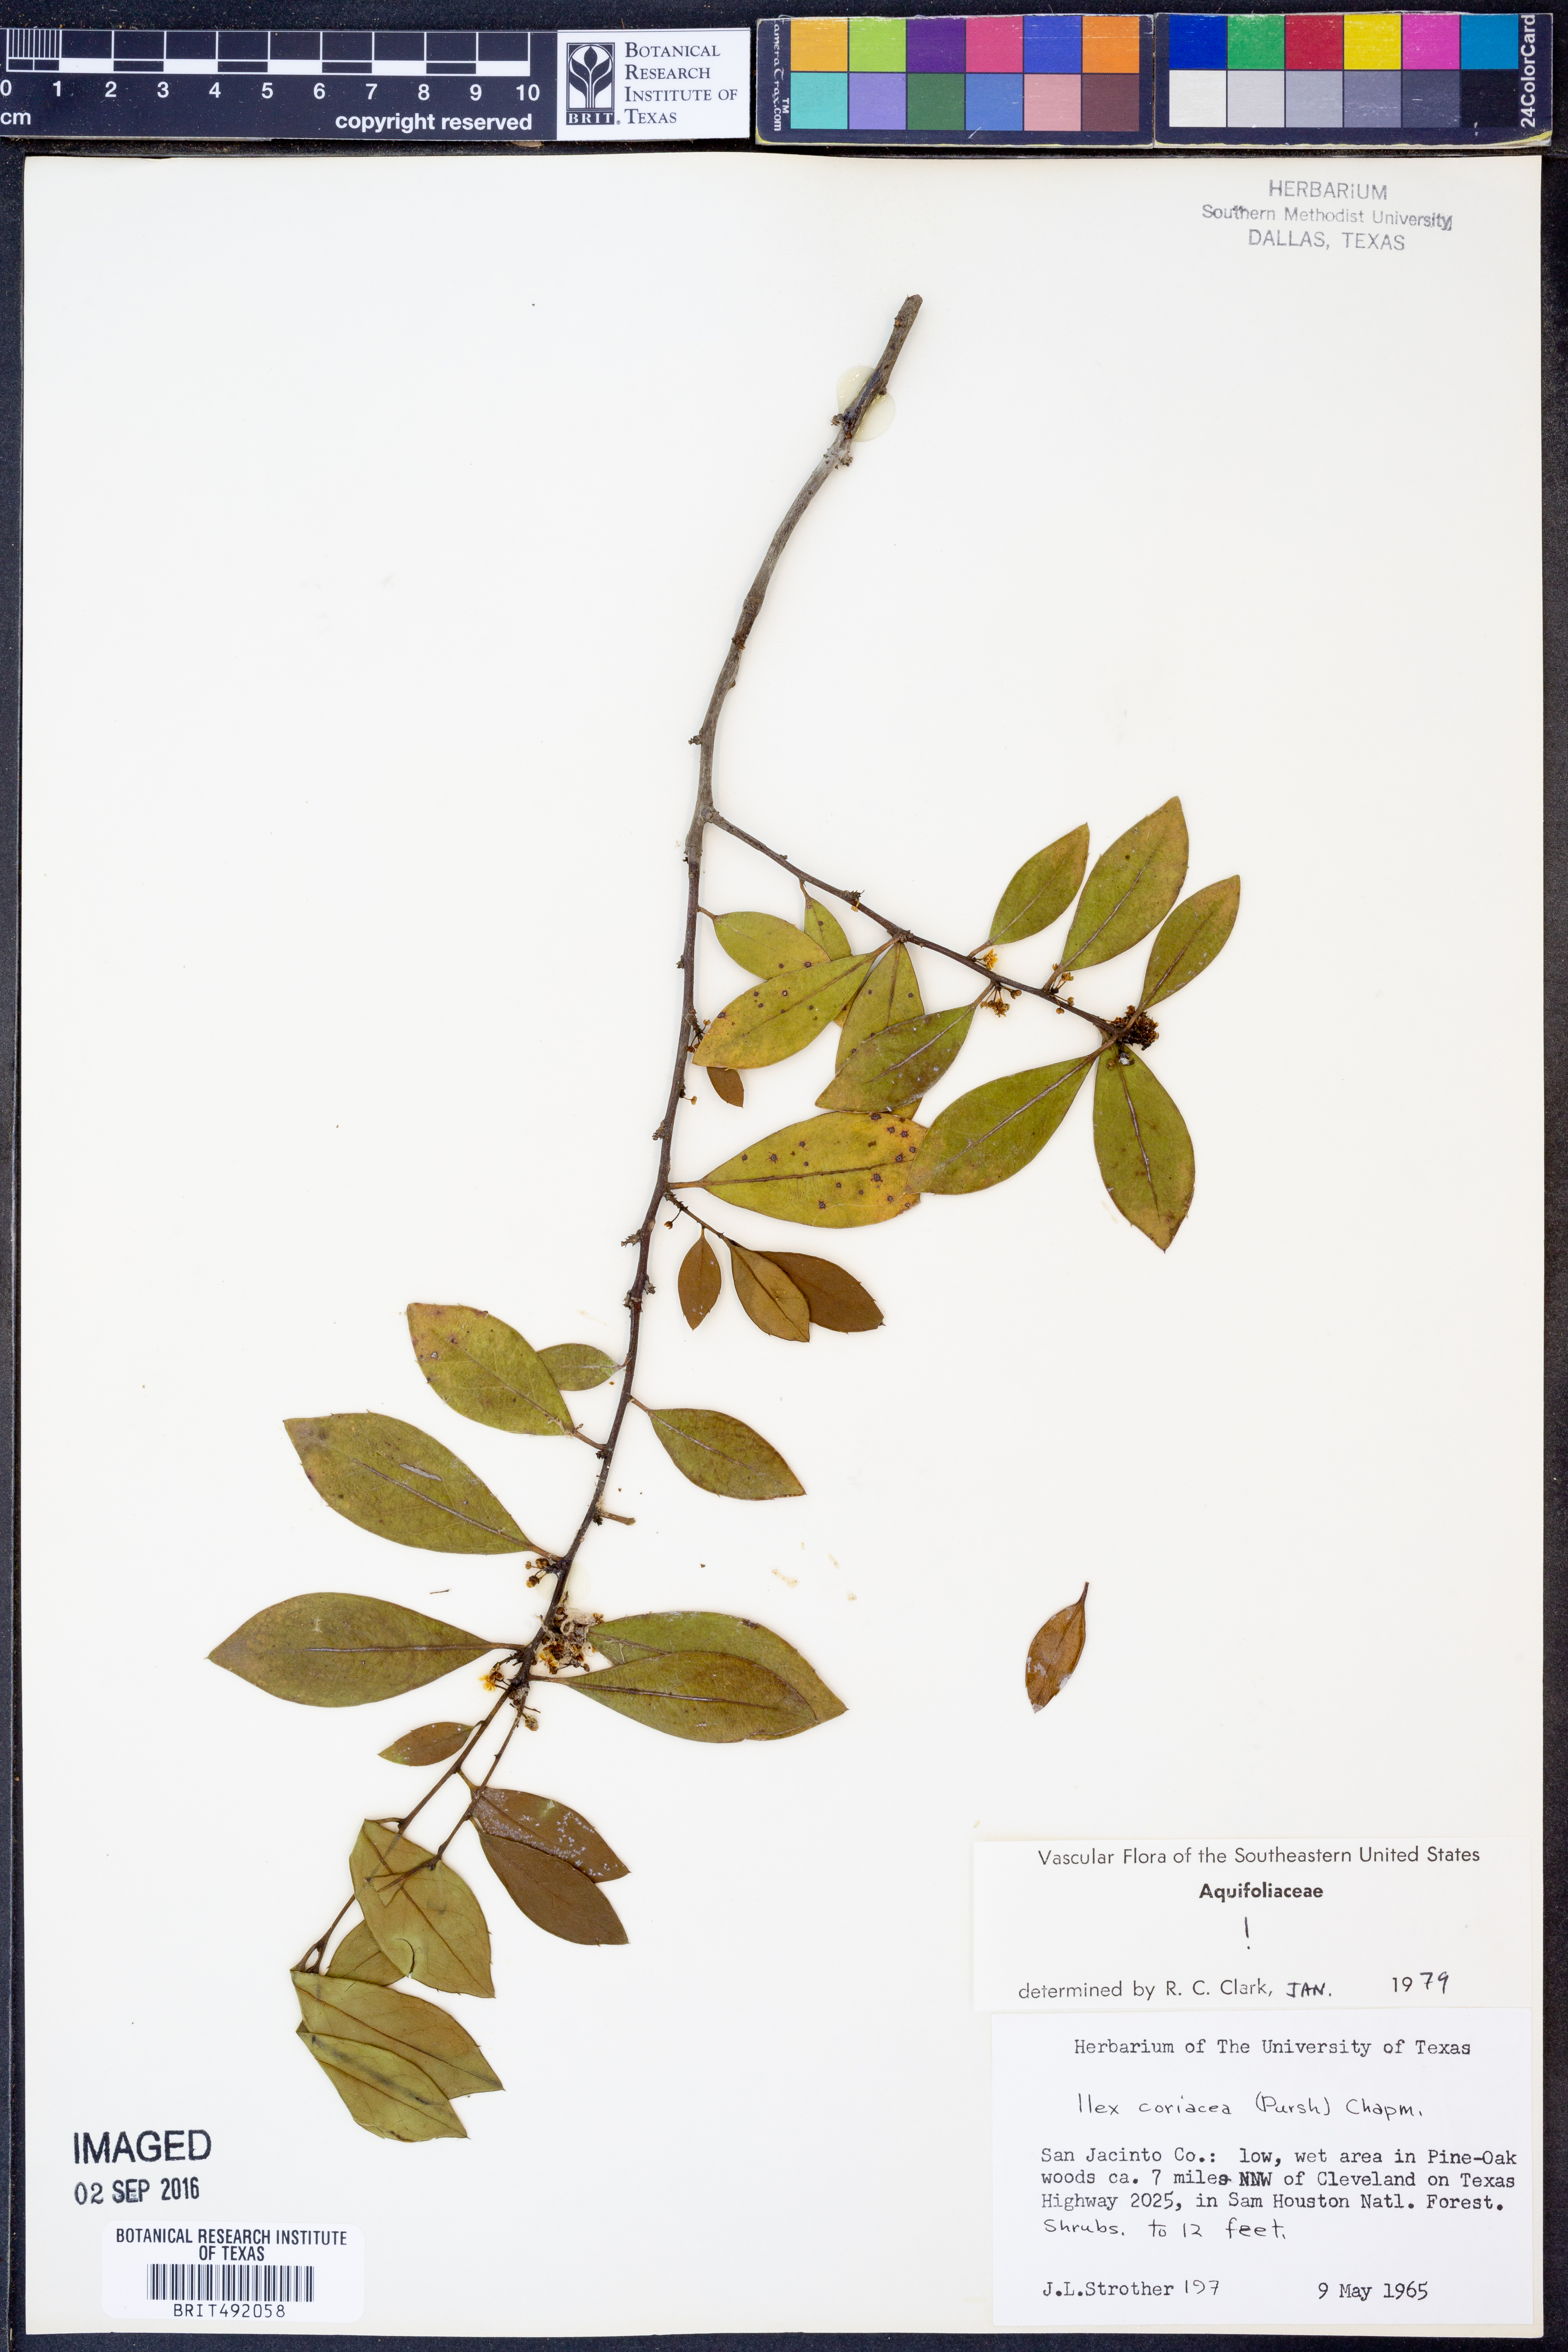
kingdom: Plantae
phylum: Tracheophyta
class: Magnoliopsida
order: Aquifoliales
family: Aquifoliaceae
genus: Ilex
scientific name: Ilex coriacea
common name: Sweet gallberry
